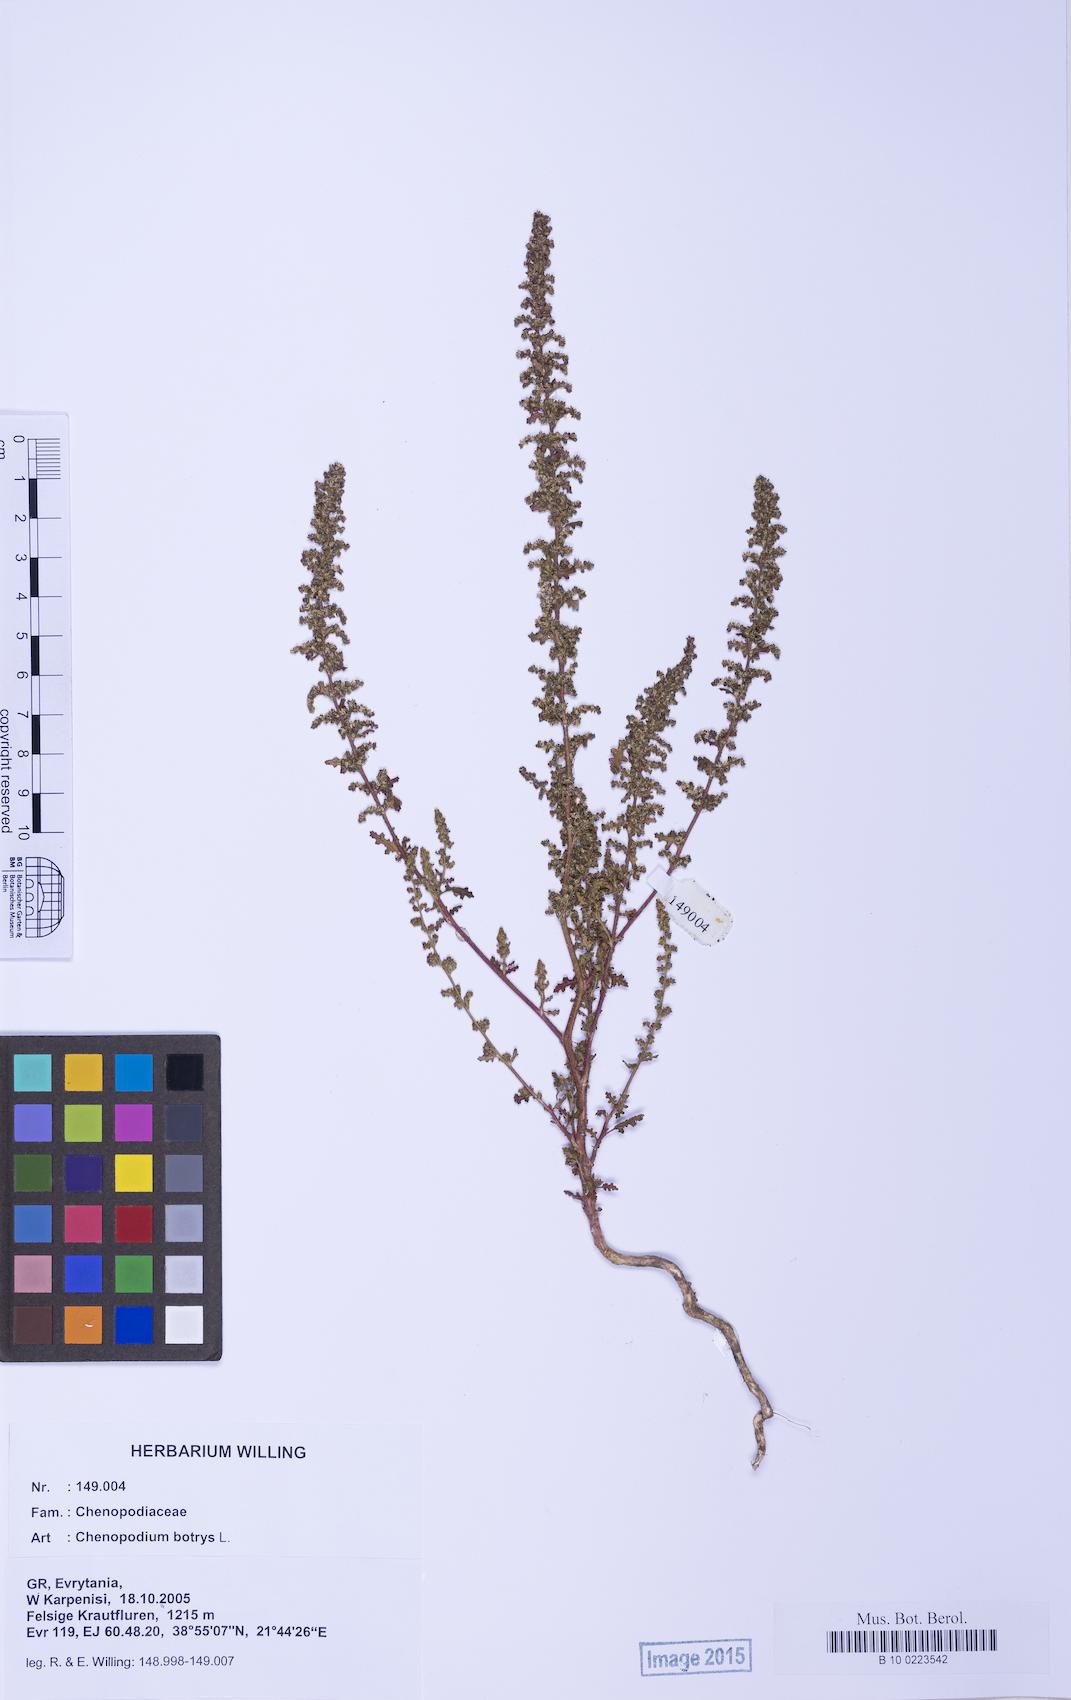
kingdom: Plantae
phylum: Tracheophyta
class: Magnoliopsida
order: Caryophyllales
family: Amaranthaceae
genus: Dysphania
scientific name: Dysphania botrys
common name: Feather-geranium
